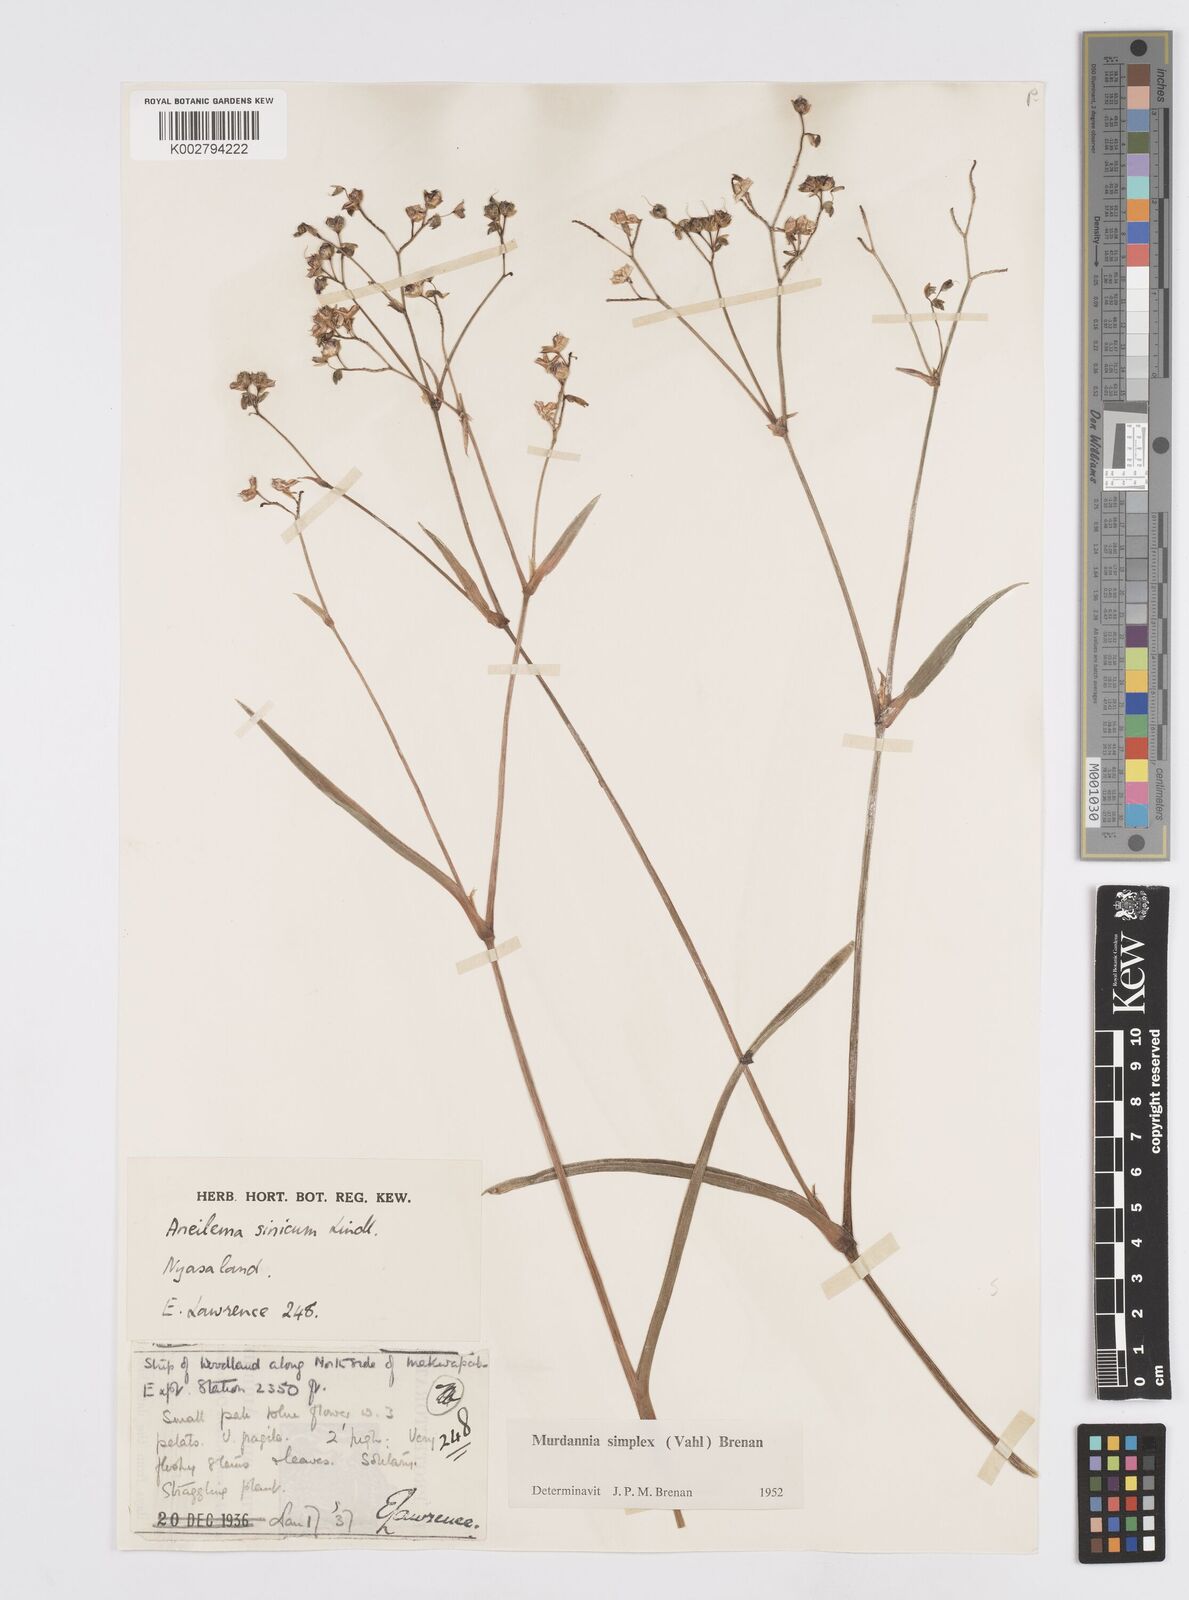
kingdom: Plantae
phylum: Tracheophyta
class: Liliopsida
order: Commelinales
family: Commelinaceae
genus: Murdannia
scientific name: Murdannia simplex
